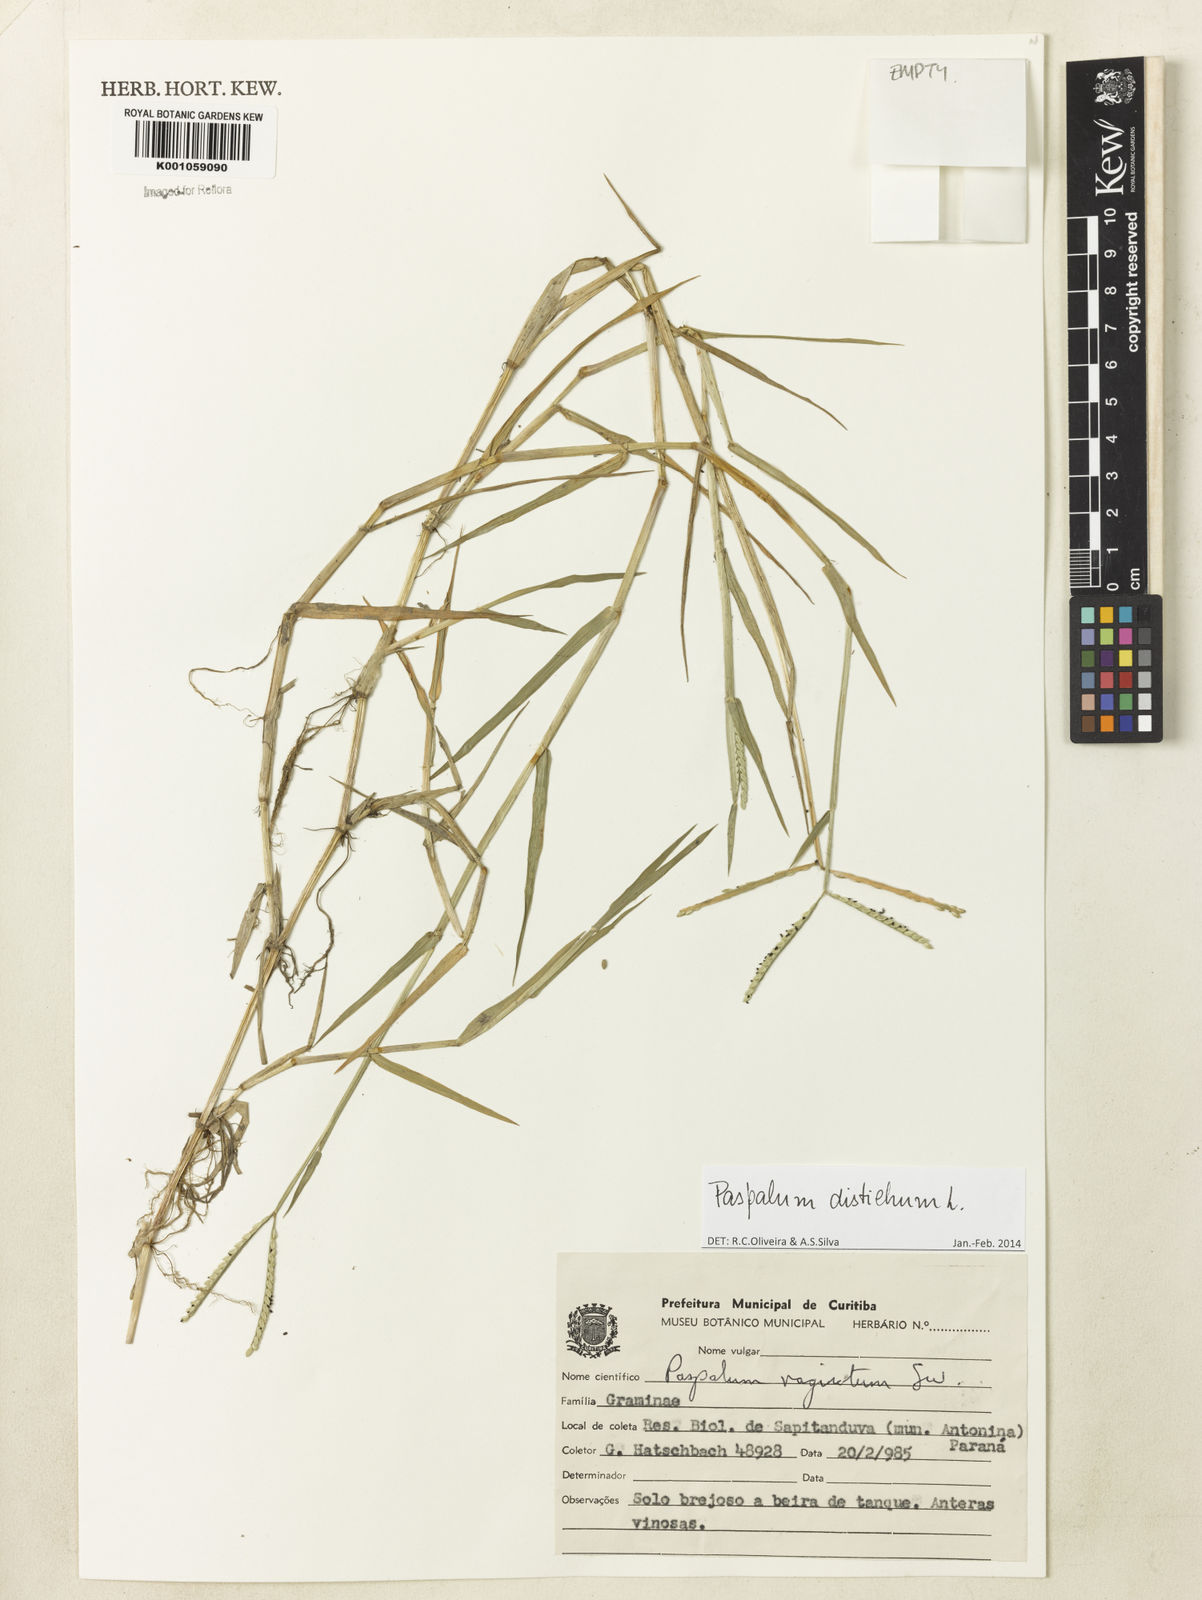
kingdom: Plantae
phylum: Tracheophyta
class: Liliopsida
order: Poales
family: Poaceae
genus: Paspalum
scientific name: Paspalum distichum
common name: Knotgrass
